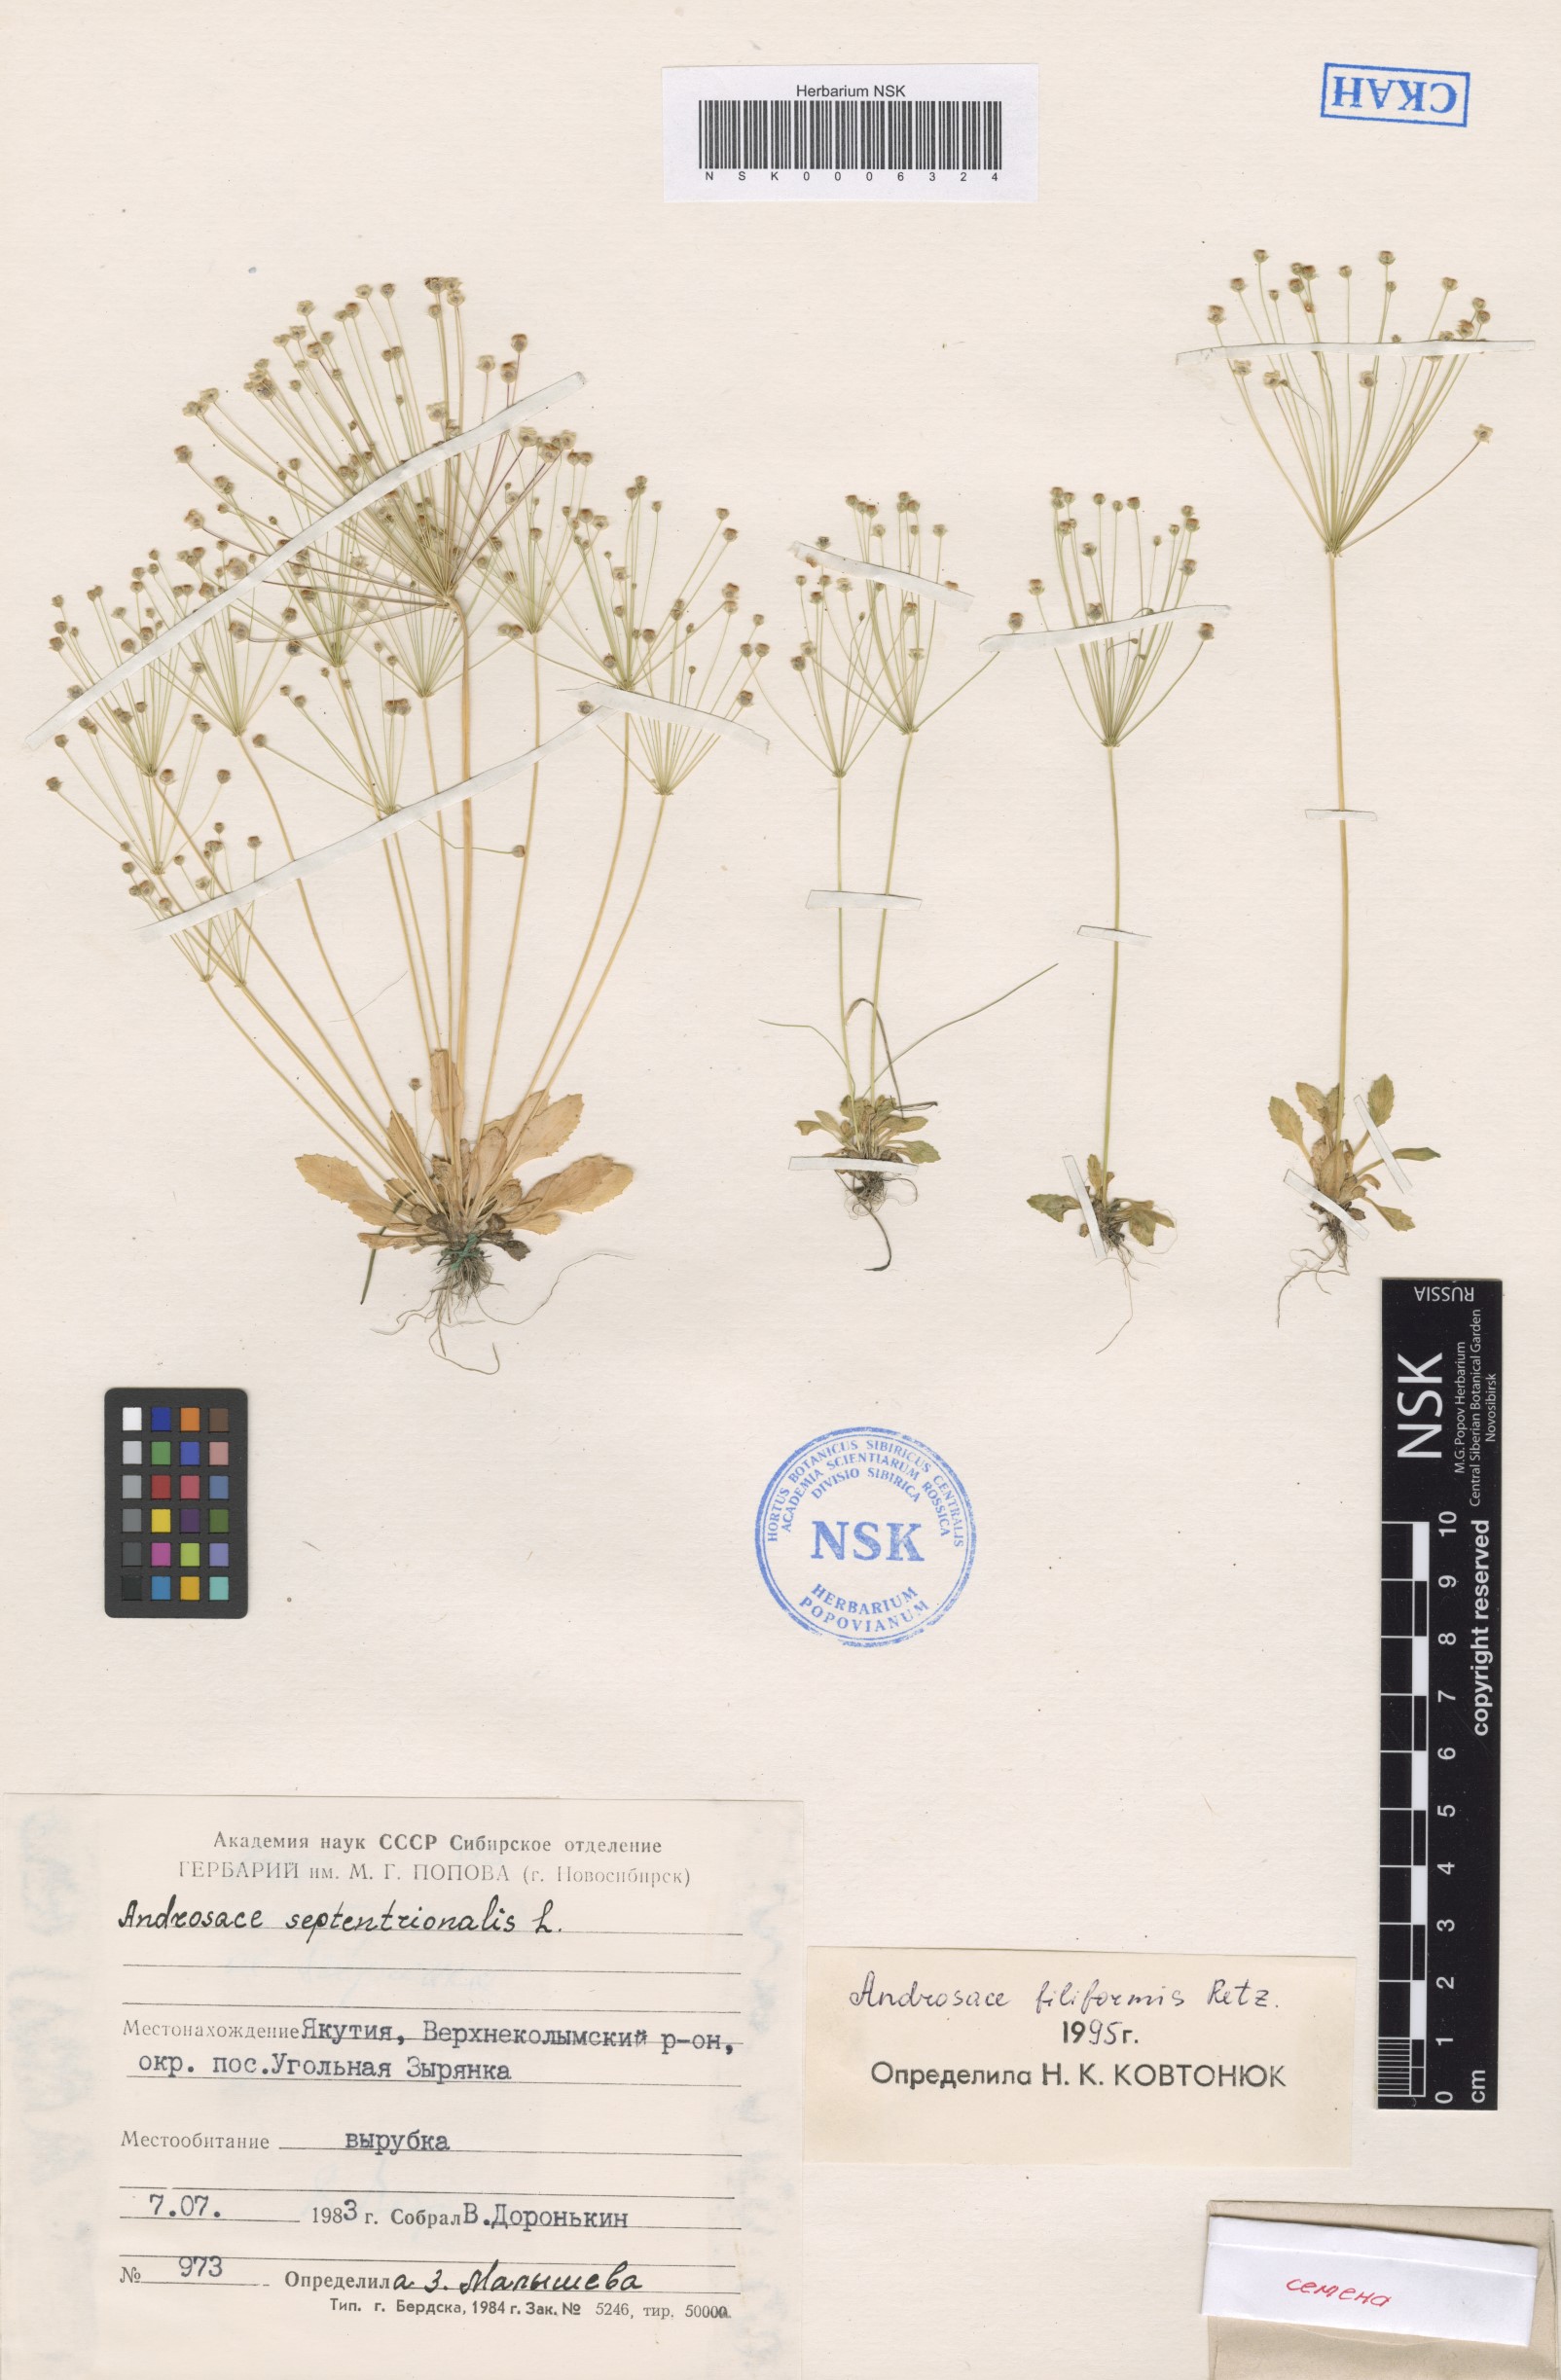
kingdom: Plantae
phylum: Tracheophyta
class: Magnoliopsida
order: Ericales
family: Primulaceae
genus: Androsace
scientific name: Androsace filiformis
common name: Filiform rock jasmine
